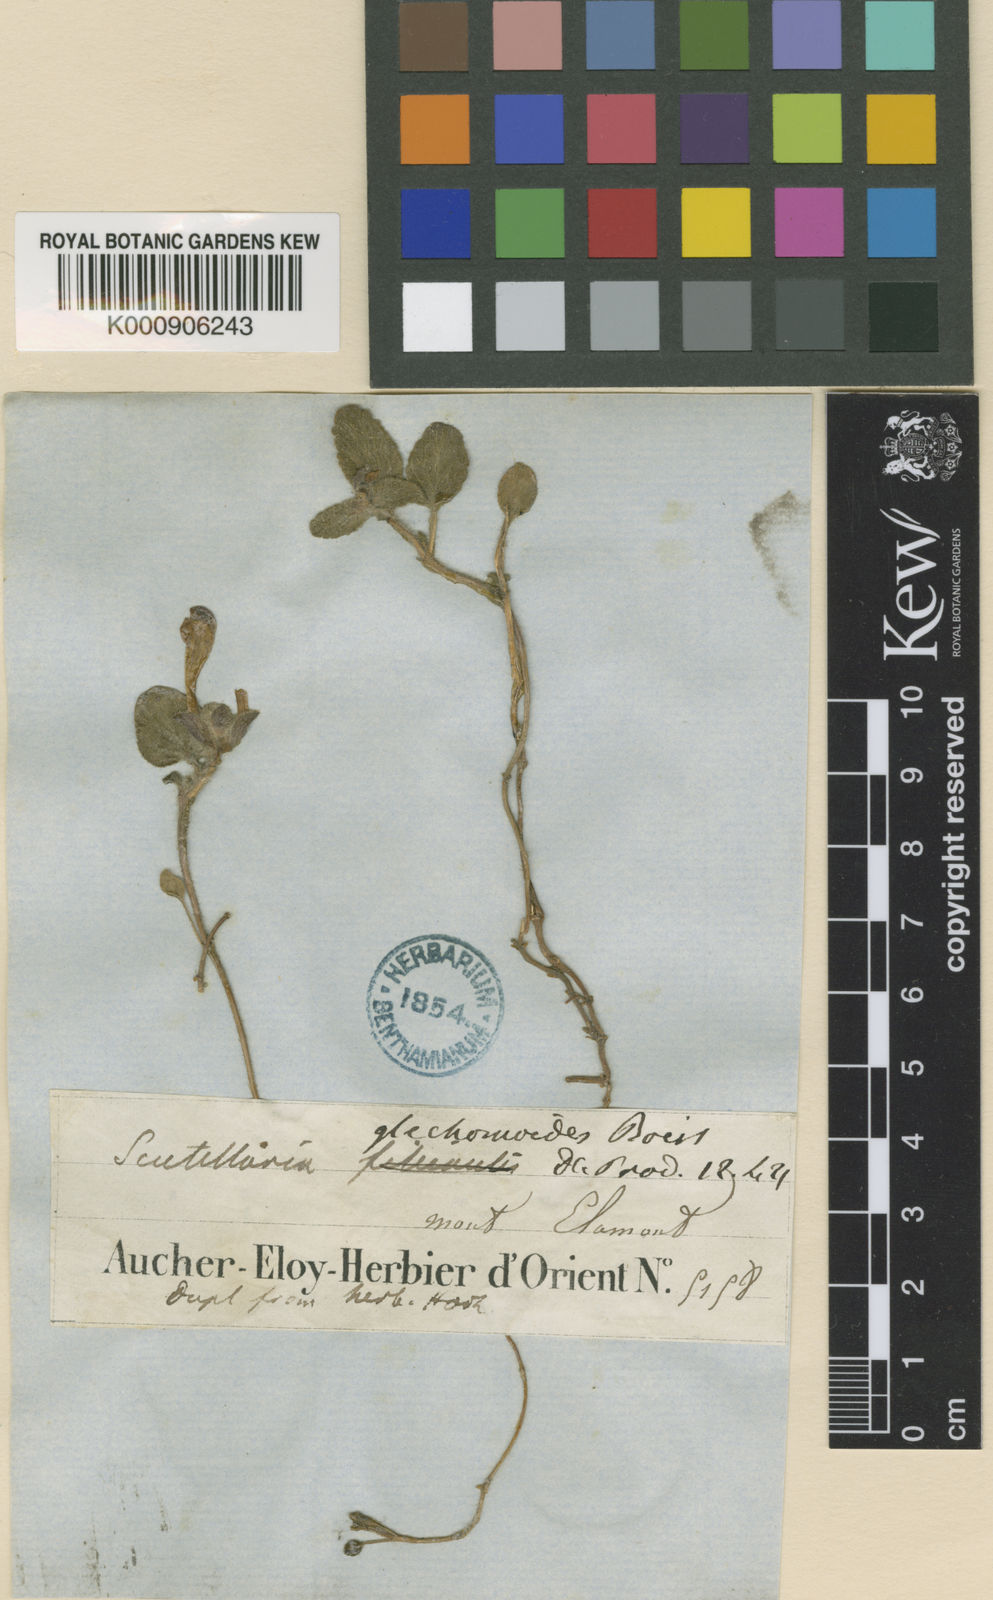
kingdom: Plantae
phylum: Tracheophyta
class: Magnoliopsida
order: Lamiales
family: Lamiaceae
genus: Scutellaria
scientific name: Scutellaria
